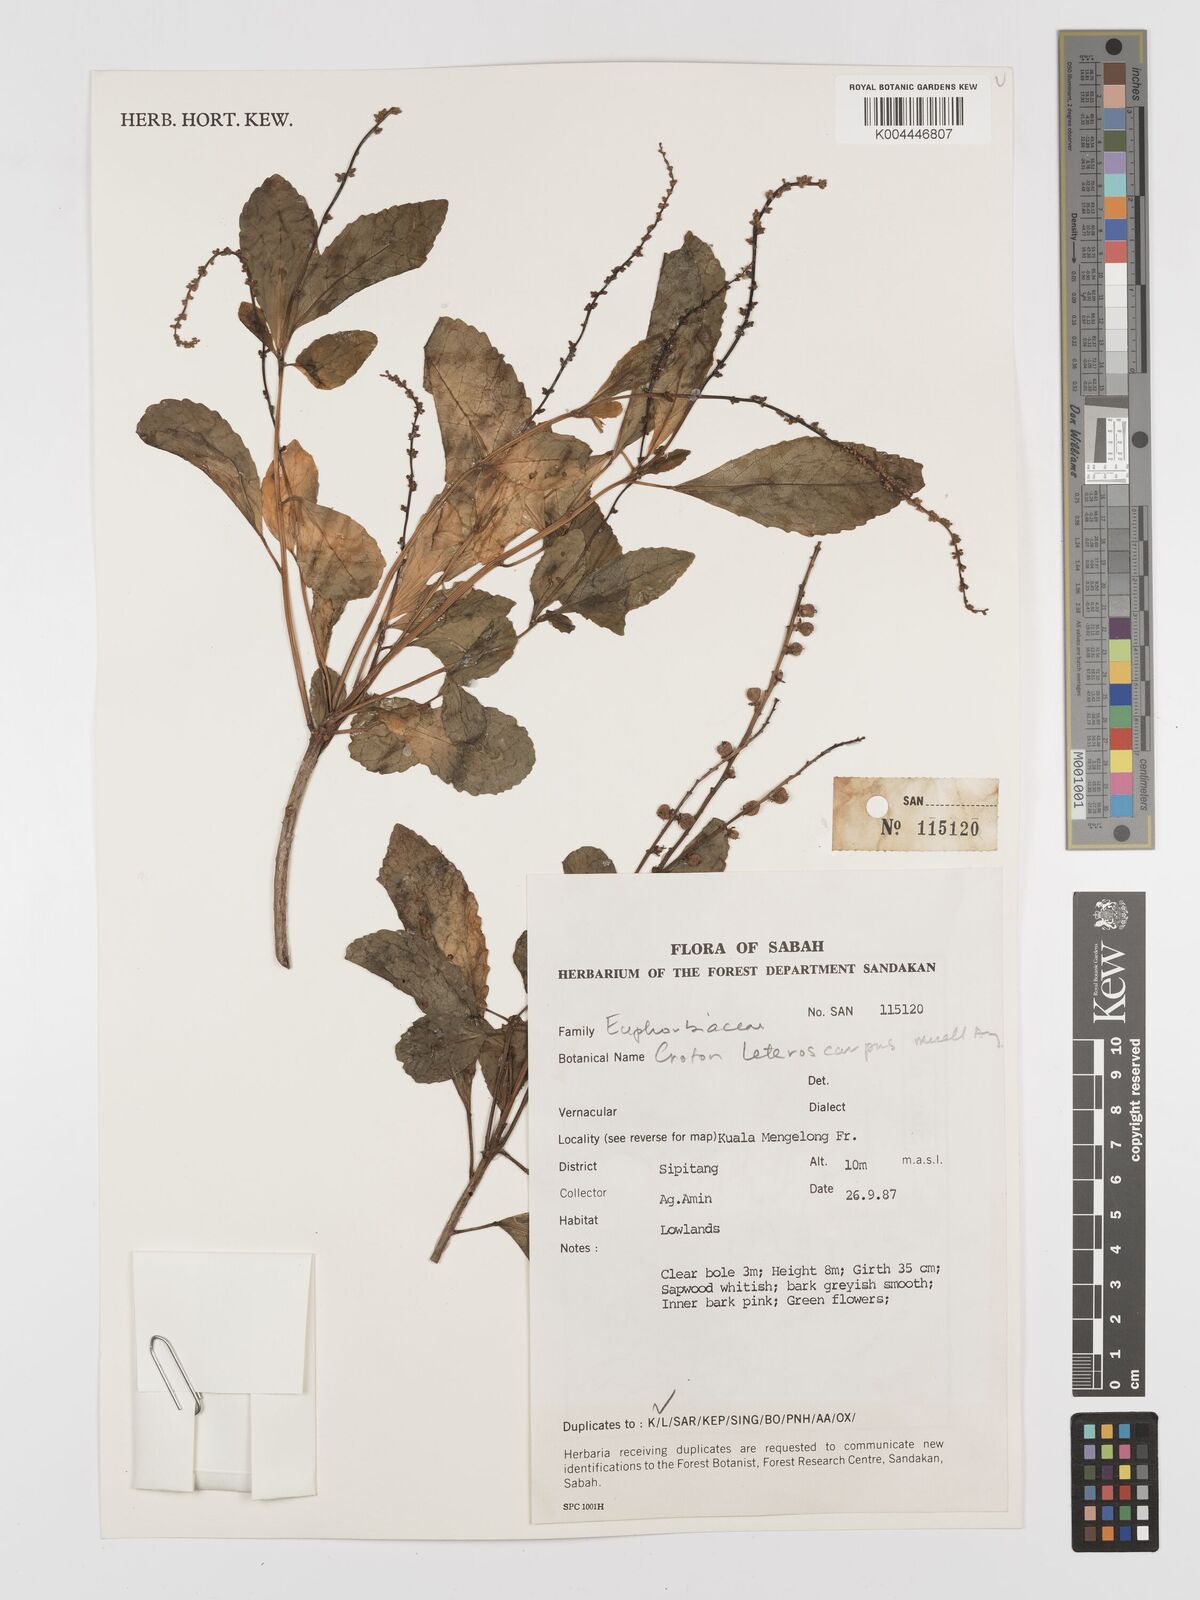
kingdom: Plantae
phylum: Tracheophyta
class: Magnoliopsida
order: Malpighiales
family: Euphorbiaceae
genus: Croton
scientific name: Croton heterocarpus
